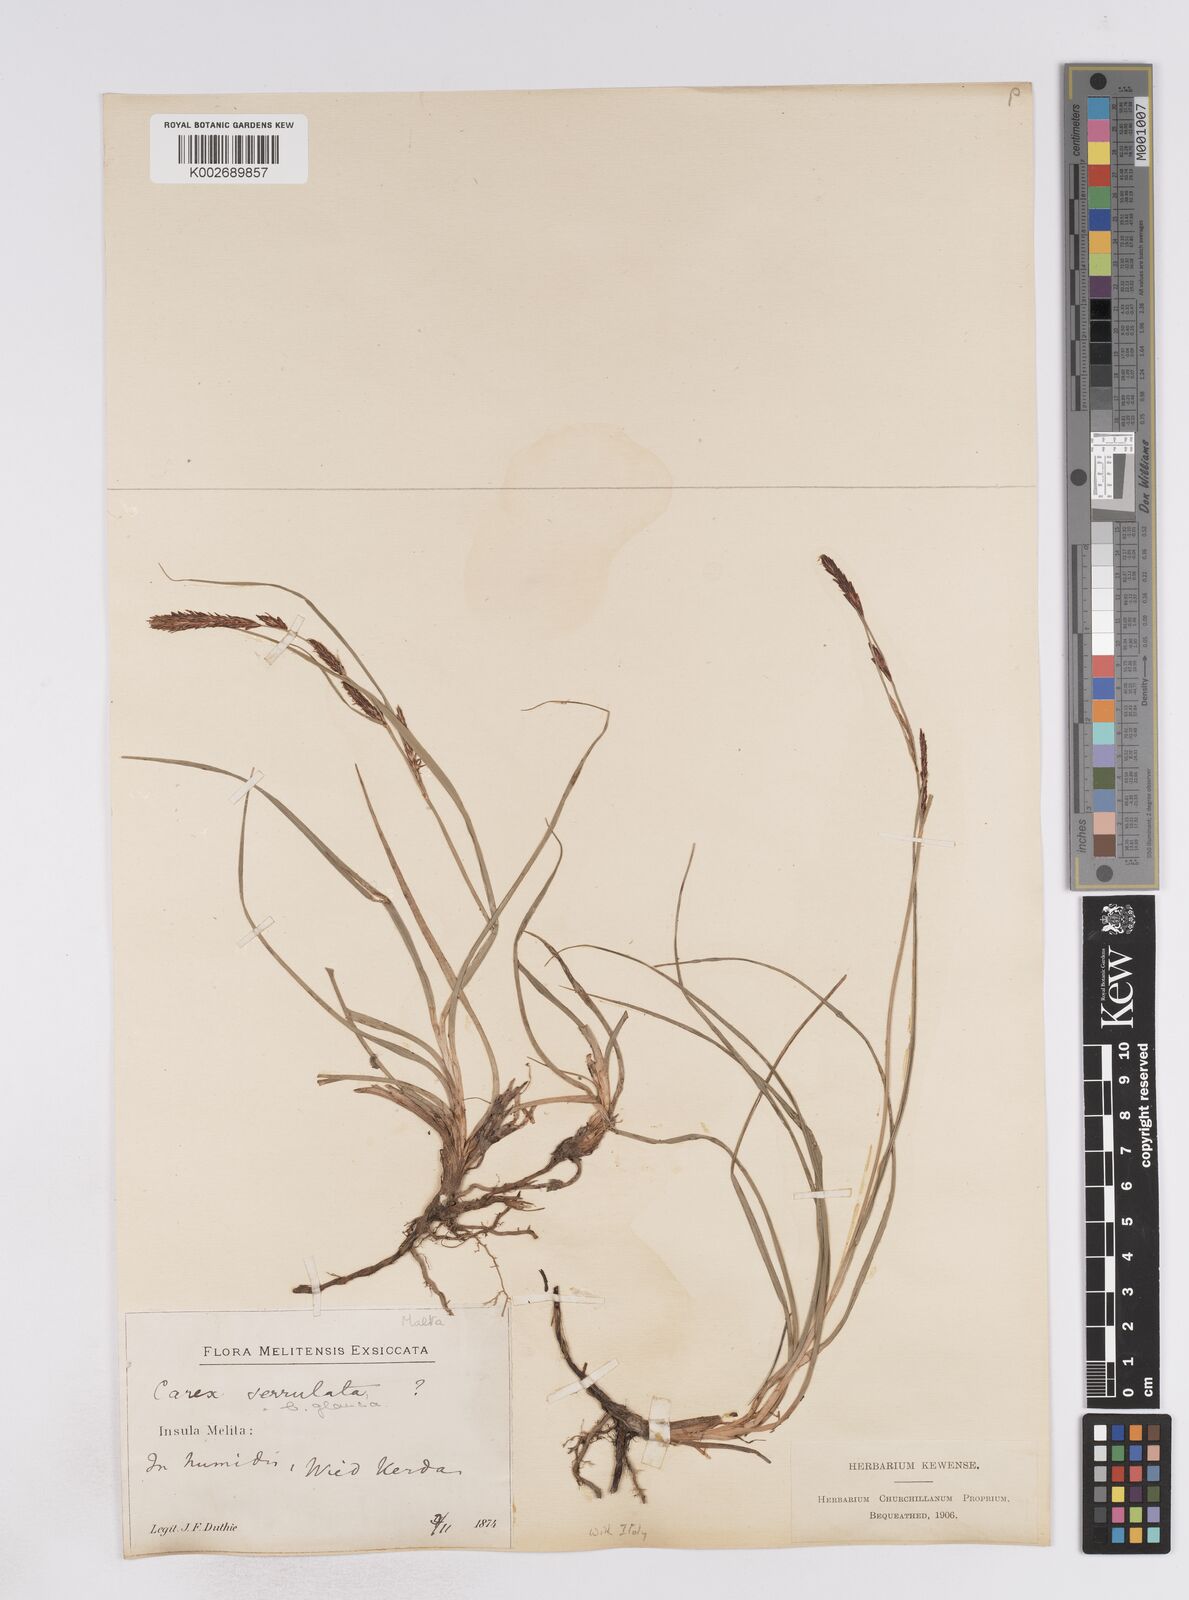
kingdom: Plantae
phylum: Tracheophyta
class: Liliopsida
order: Poales
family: Cyperaceae
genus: Carex
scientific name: Carex flacca
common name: Glaucous sedge
